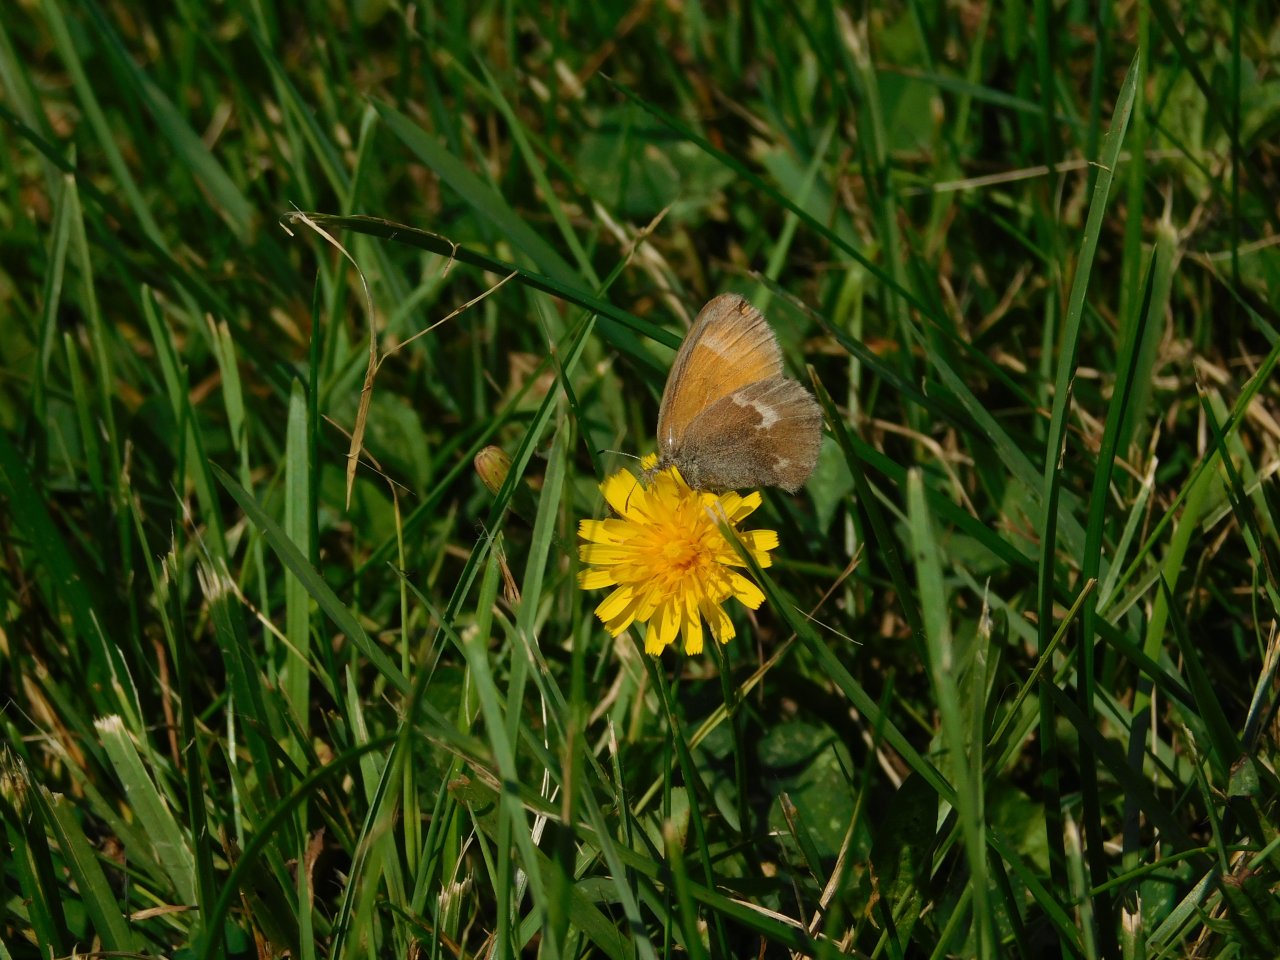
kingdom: Animalia
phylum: Arthropoda
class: Insecta
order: Lepidoptera
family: Nymphalidae
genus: Coenonympha
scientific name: Coenonympha tullia
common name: Large Heath
